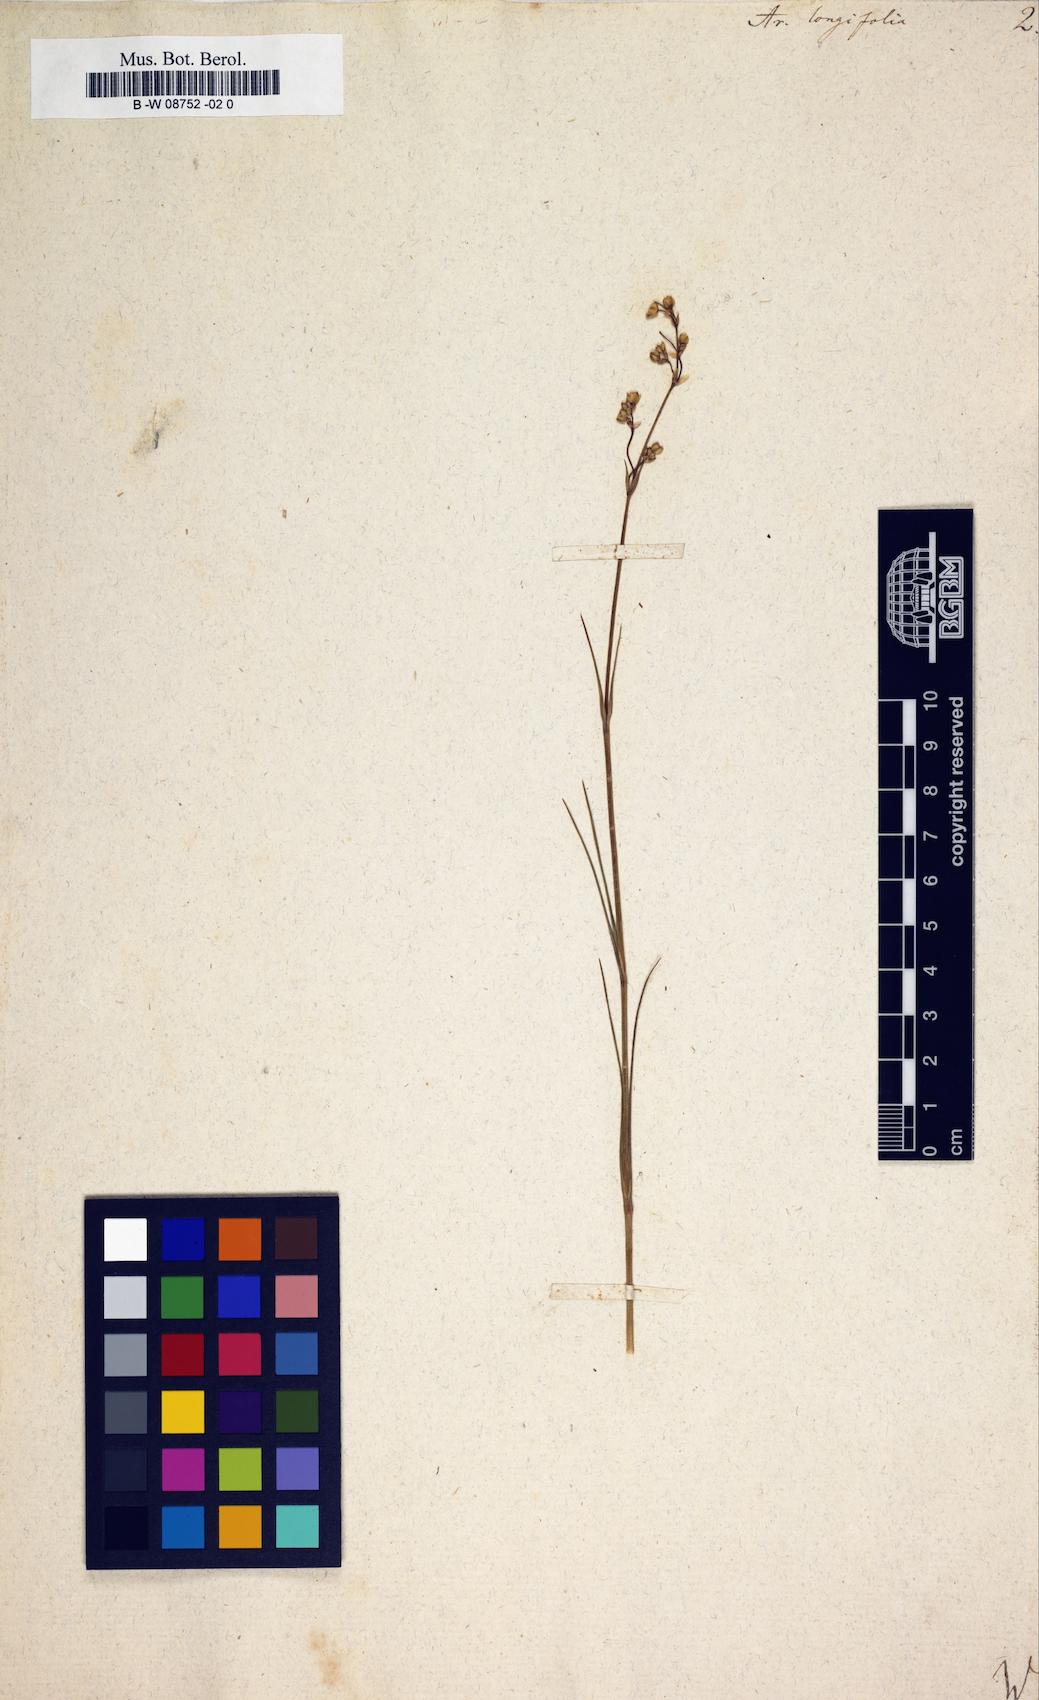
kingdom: Plantae
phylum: Tracheophyta
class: Magnoliopsida
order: Caryophyllales
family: Caryophyllaceae
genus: Eremogone
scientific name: Eremogone
